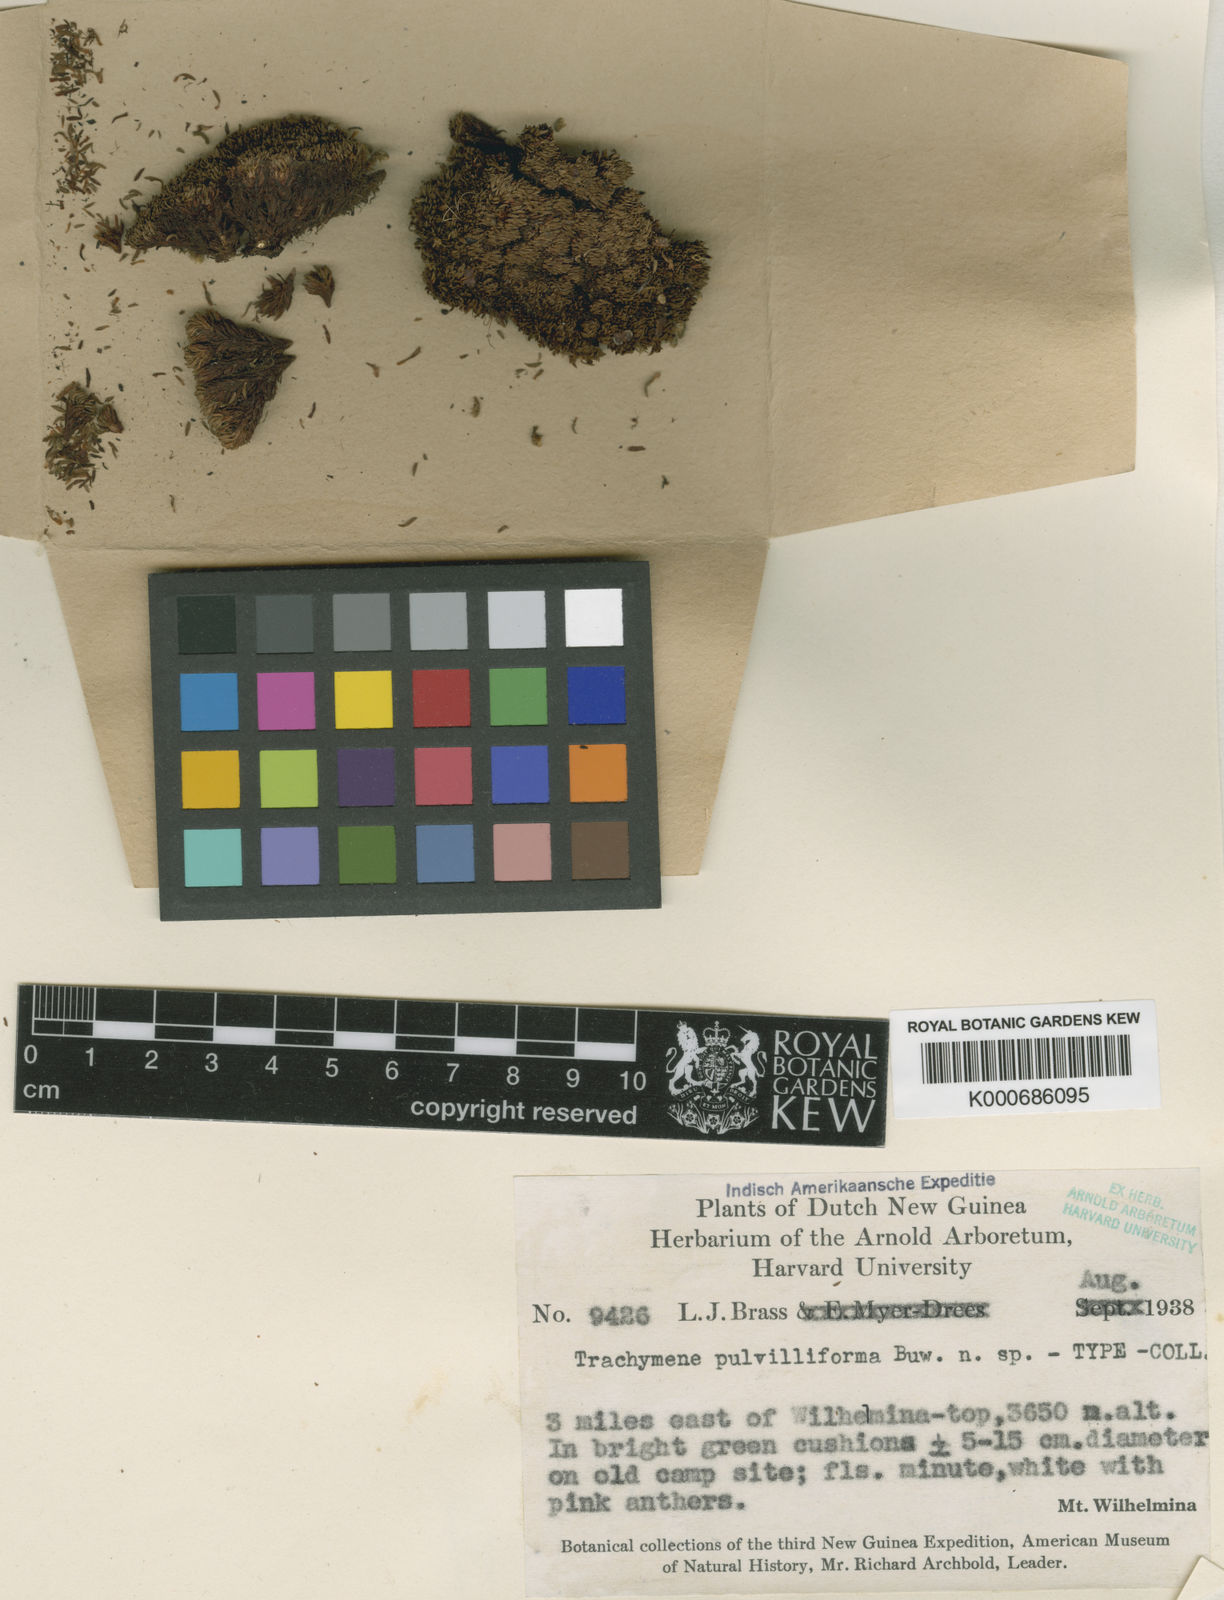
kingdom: Plantae
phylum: Tracheophyta
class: Magnoliopsida
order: Apiales
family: Araliaceae
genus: Trachymene
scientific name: Trachymene pulvilliforma
